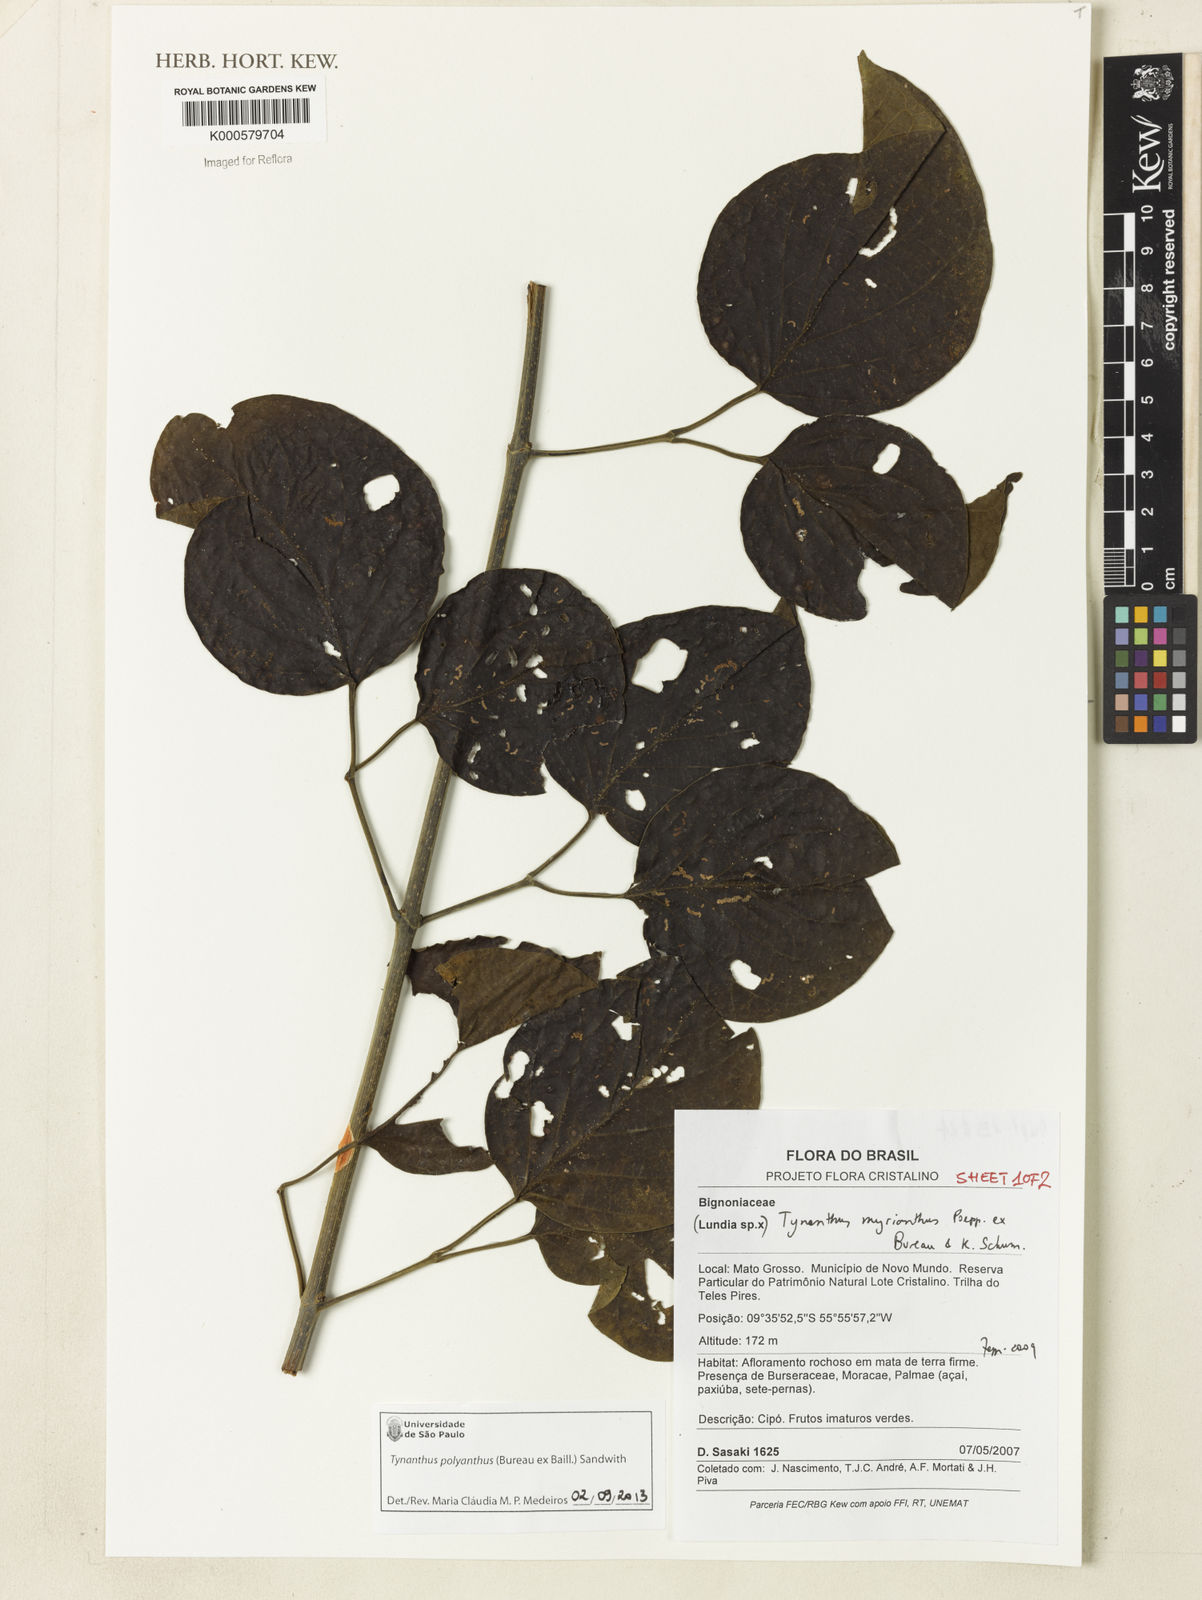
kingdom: Plantae
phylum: Tracheophyta
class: Magnoliopsida
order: Lamiales
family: Bignoniaceae
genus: Tynanthus
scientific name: Tynanthus polyanthus
